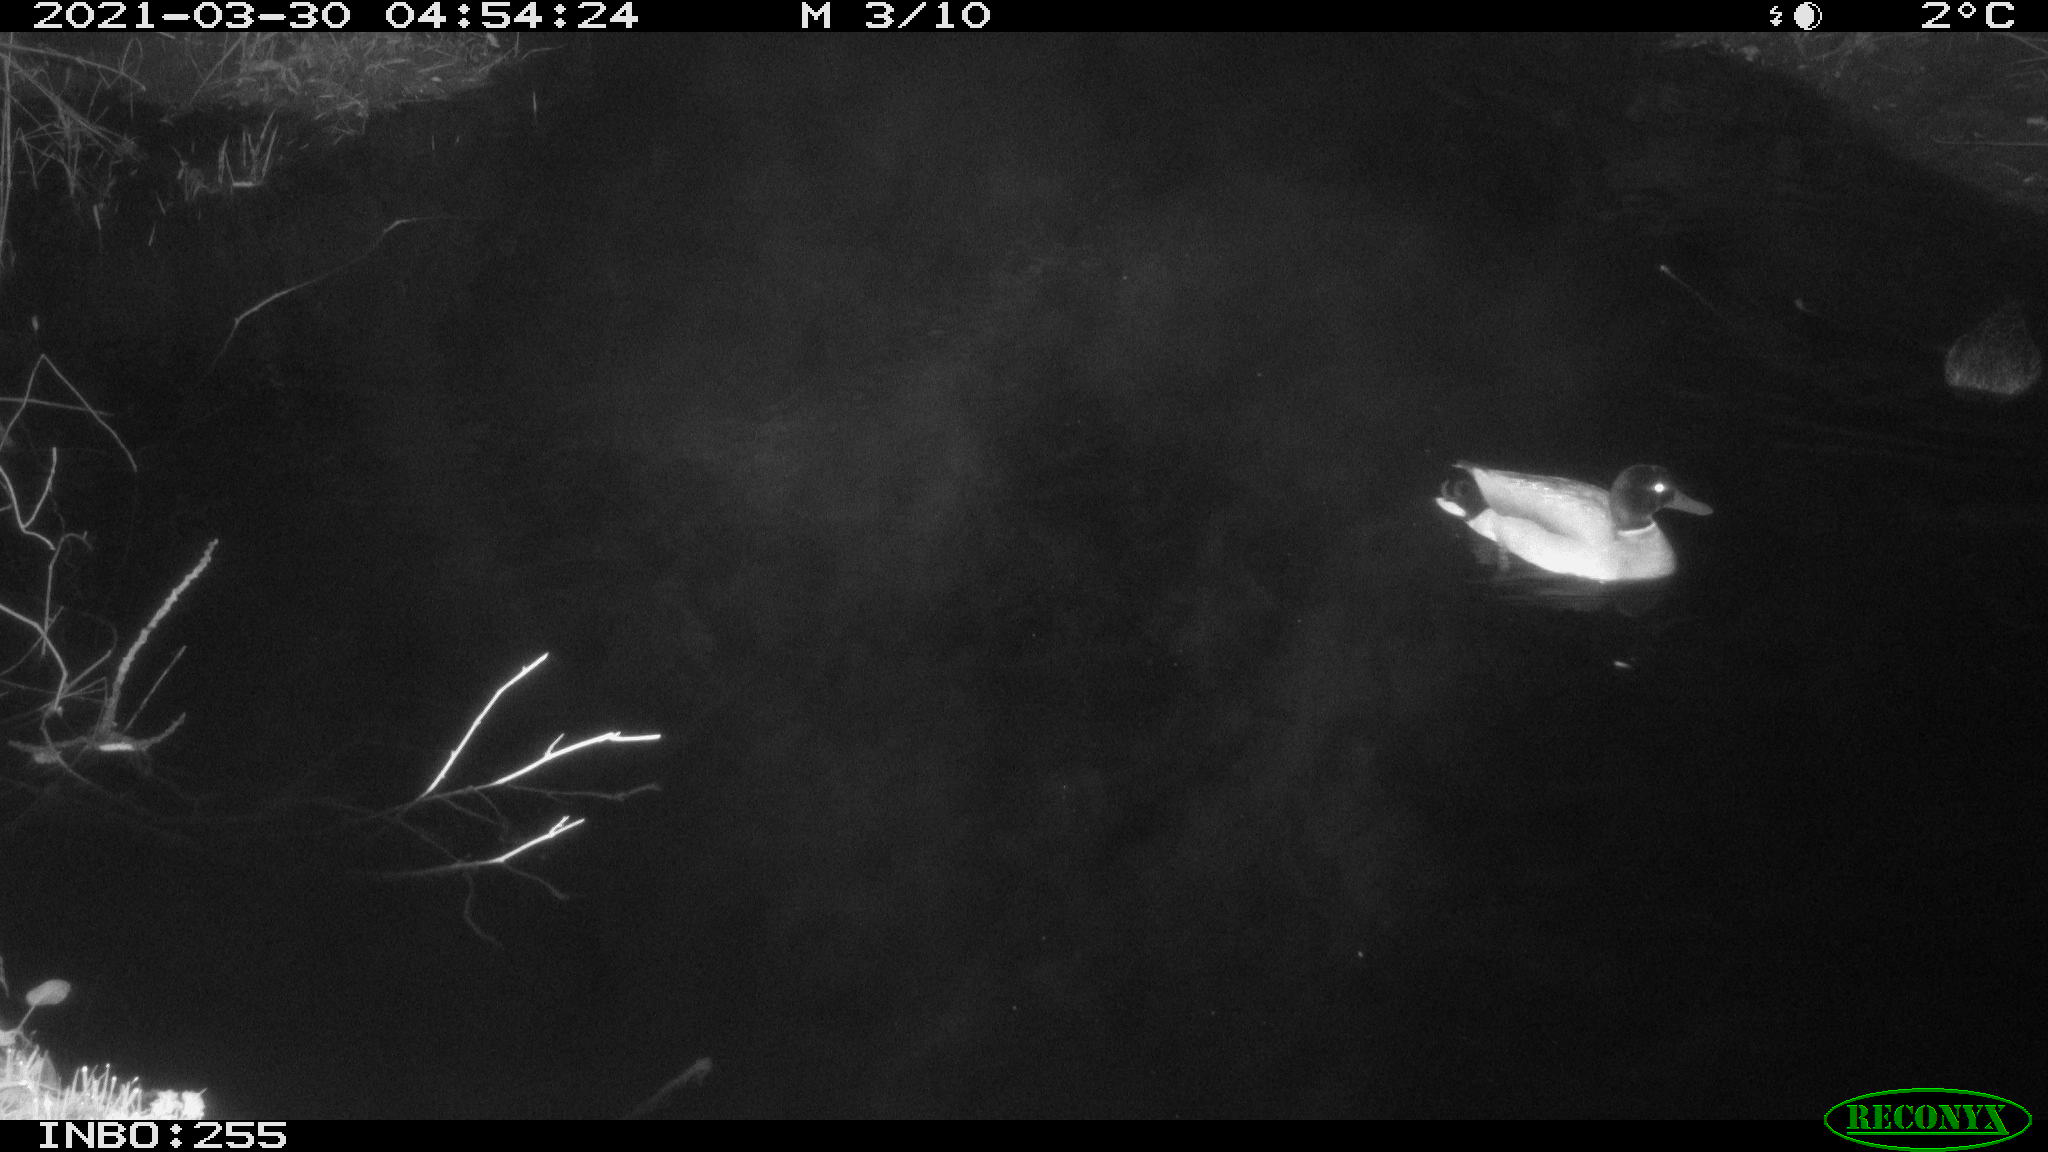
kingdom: Animalia
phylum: Chordata
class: Aves
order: Anseriformes
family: Anatidae
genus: Anas
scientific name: Anas platyrhynchos
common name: Mallard
